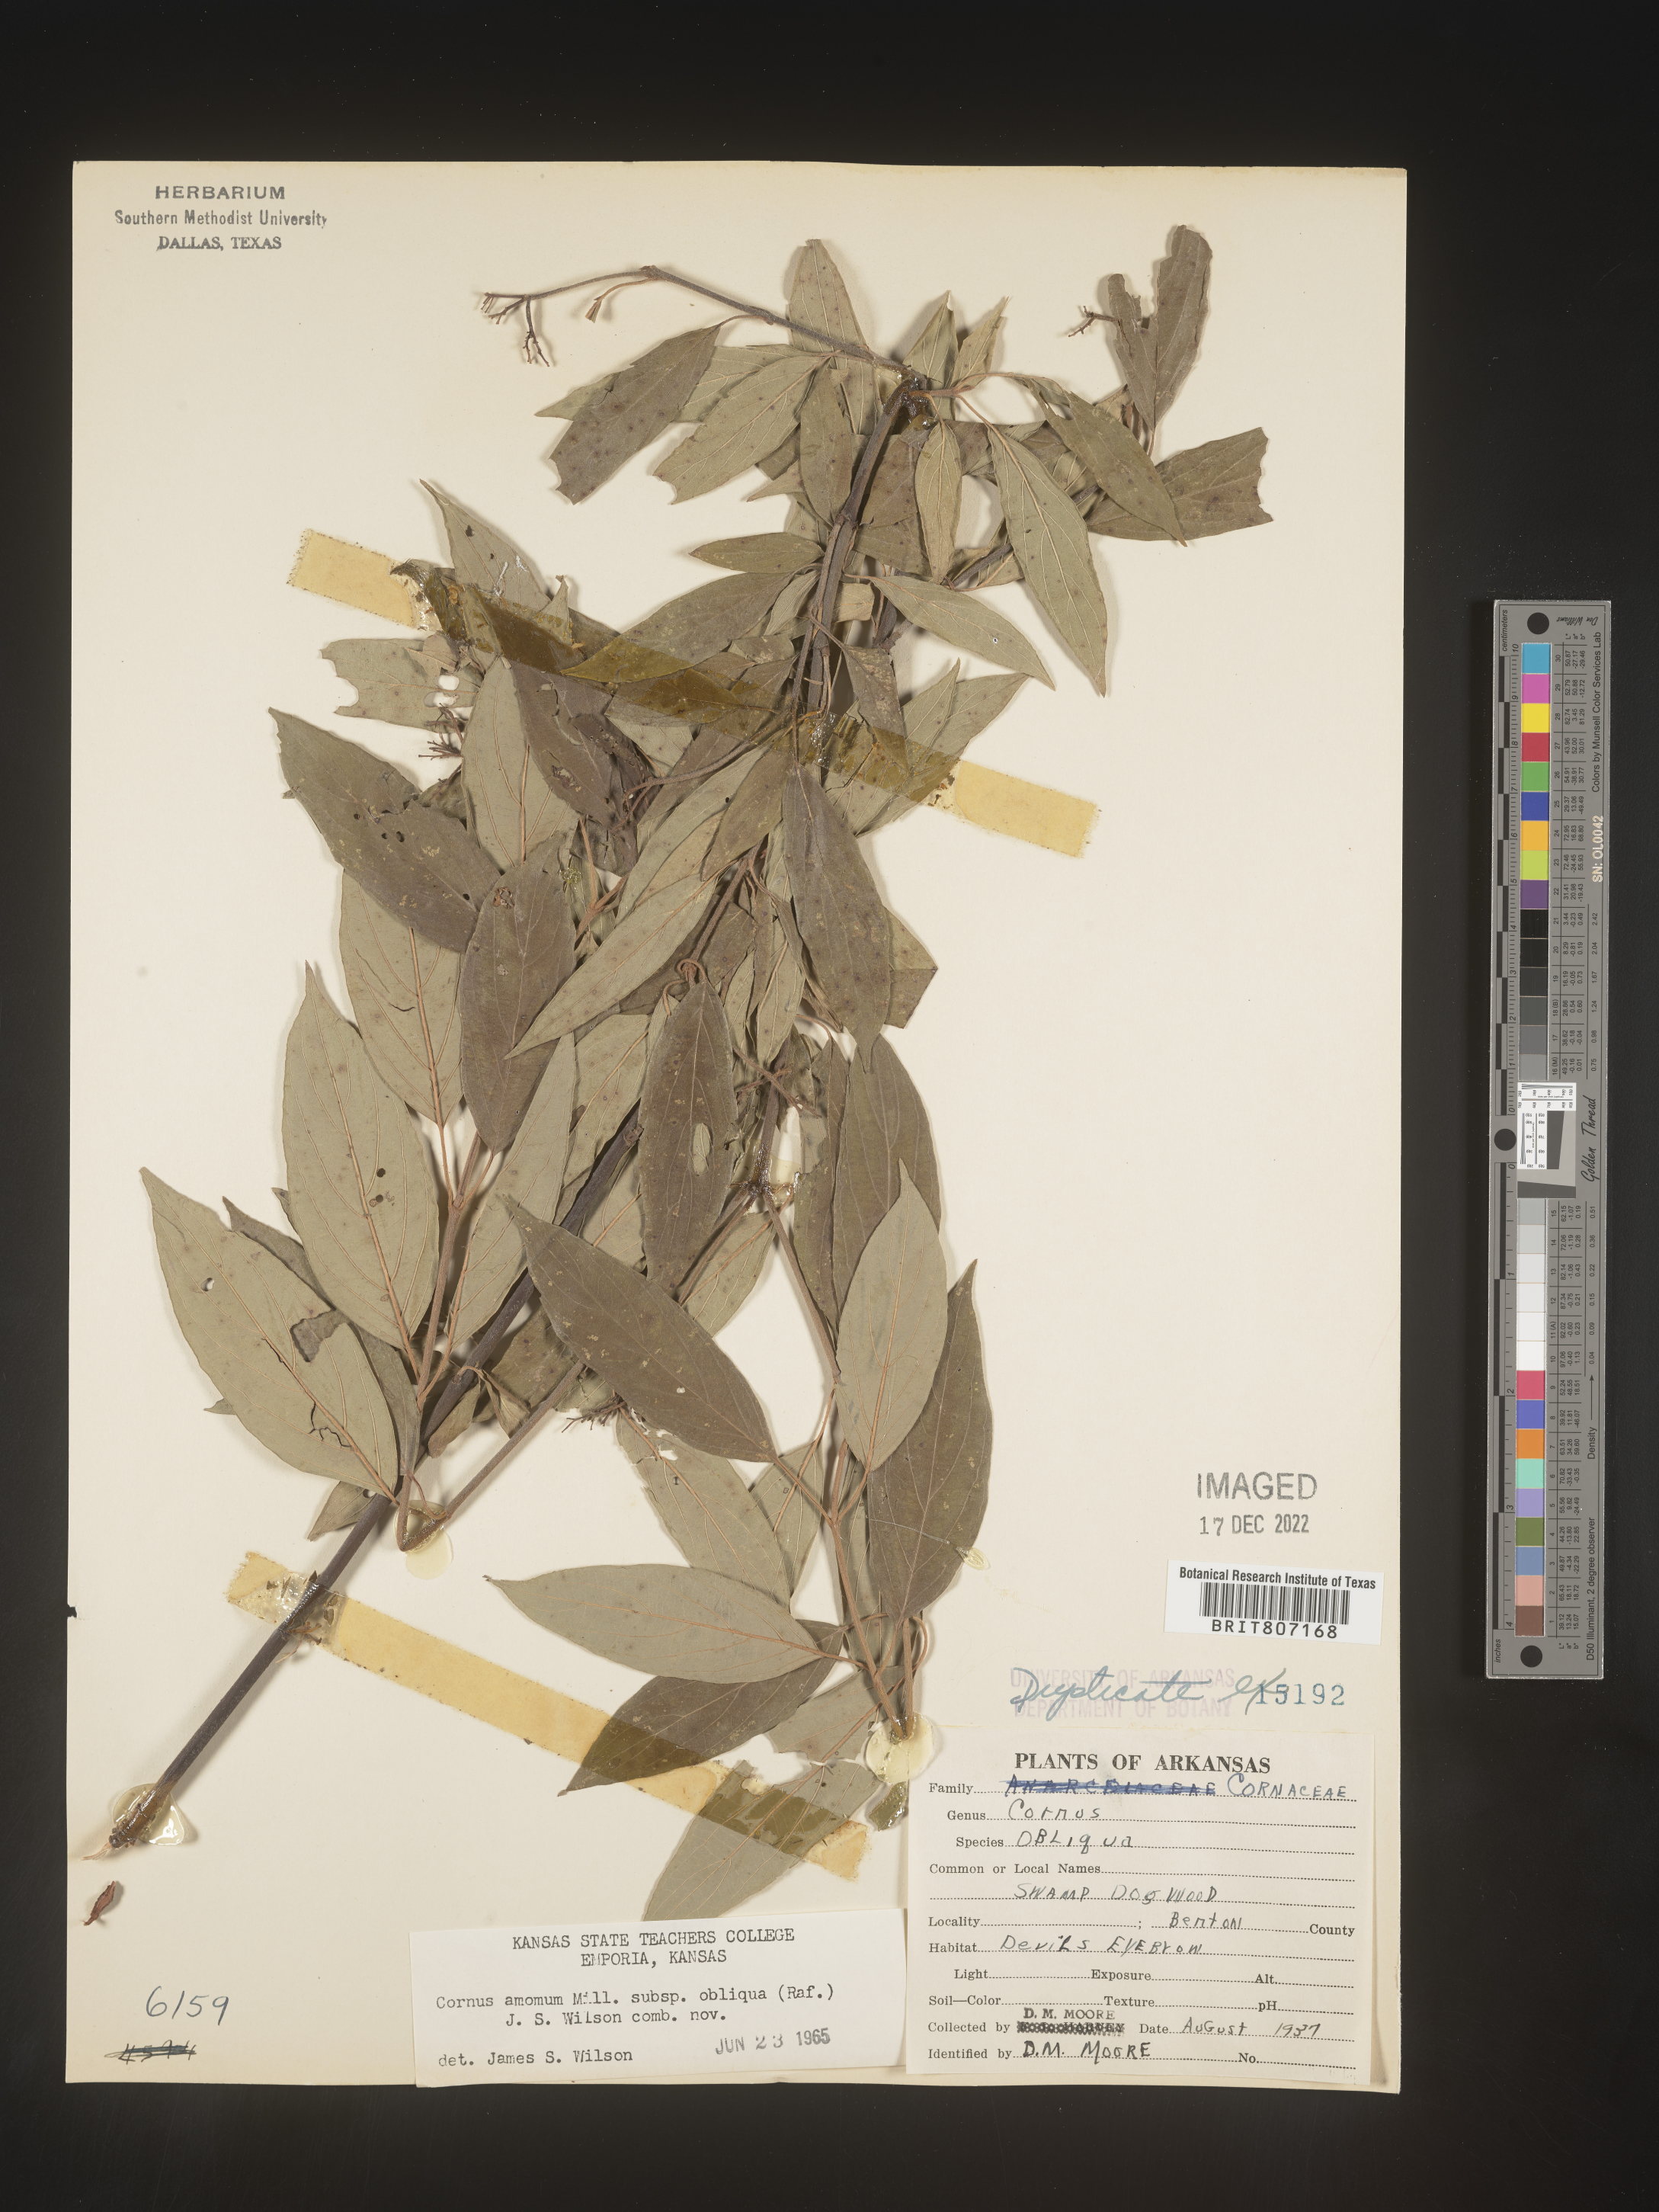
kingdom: Plantae
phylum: Tracheophyta
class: Magnoliopsida
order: Cornales
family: Cornaceae
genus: Cornus
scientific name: Cornus amomum
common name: Silky dogwood
